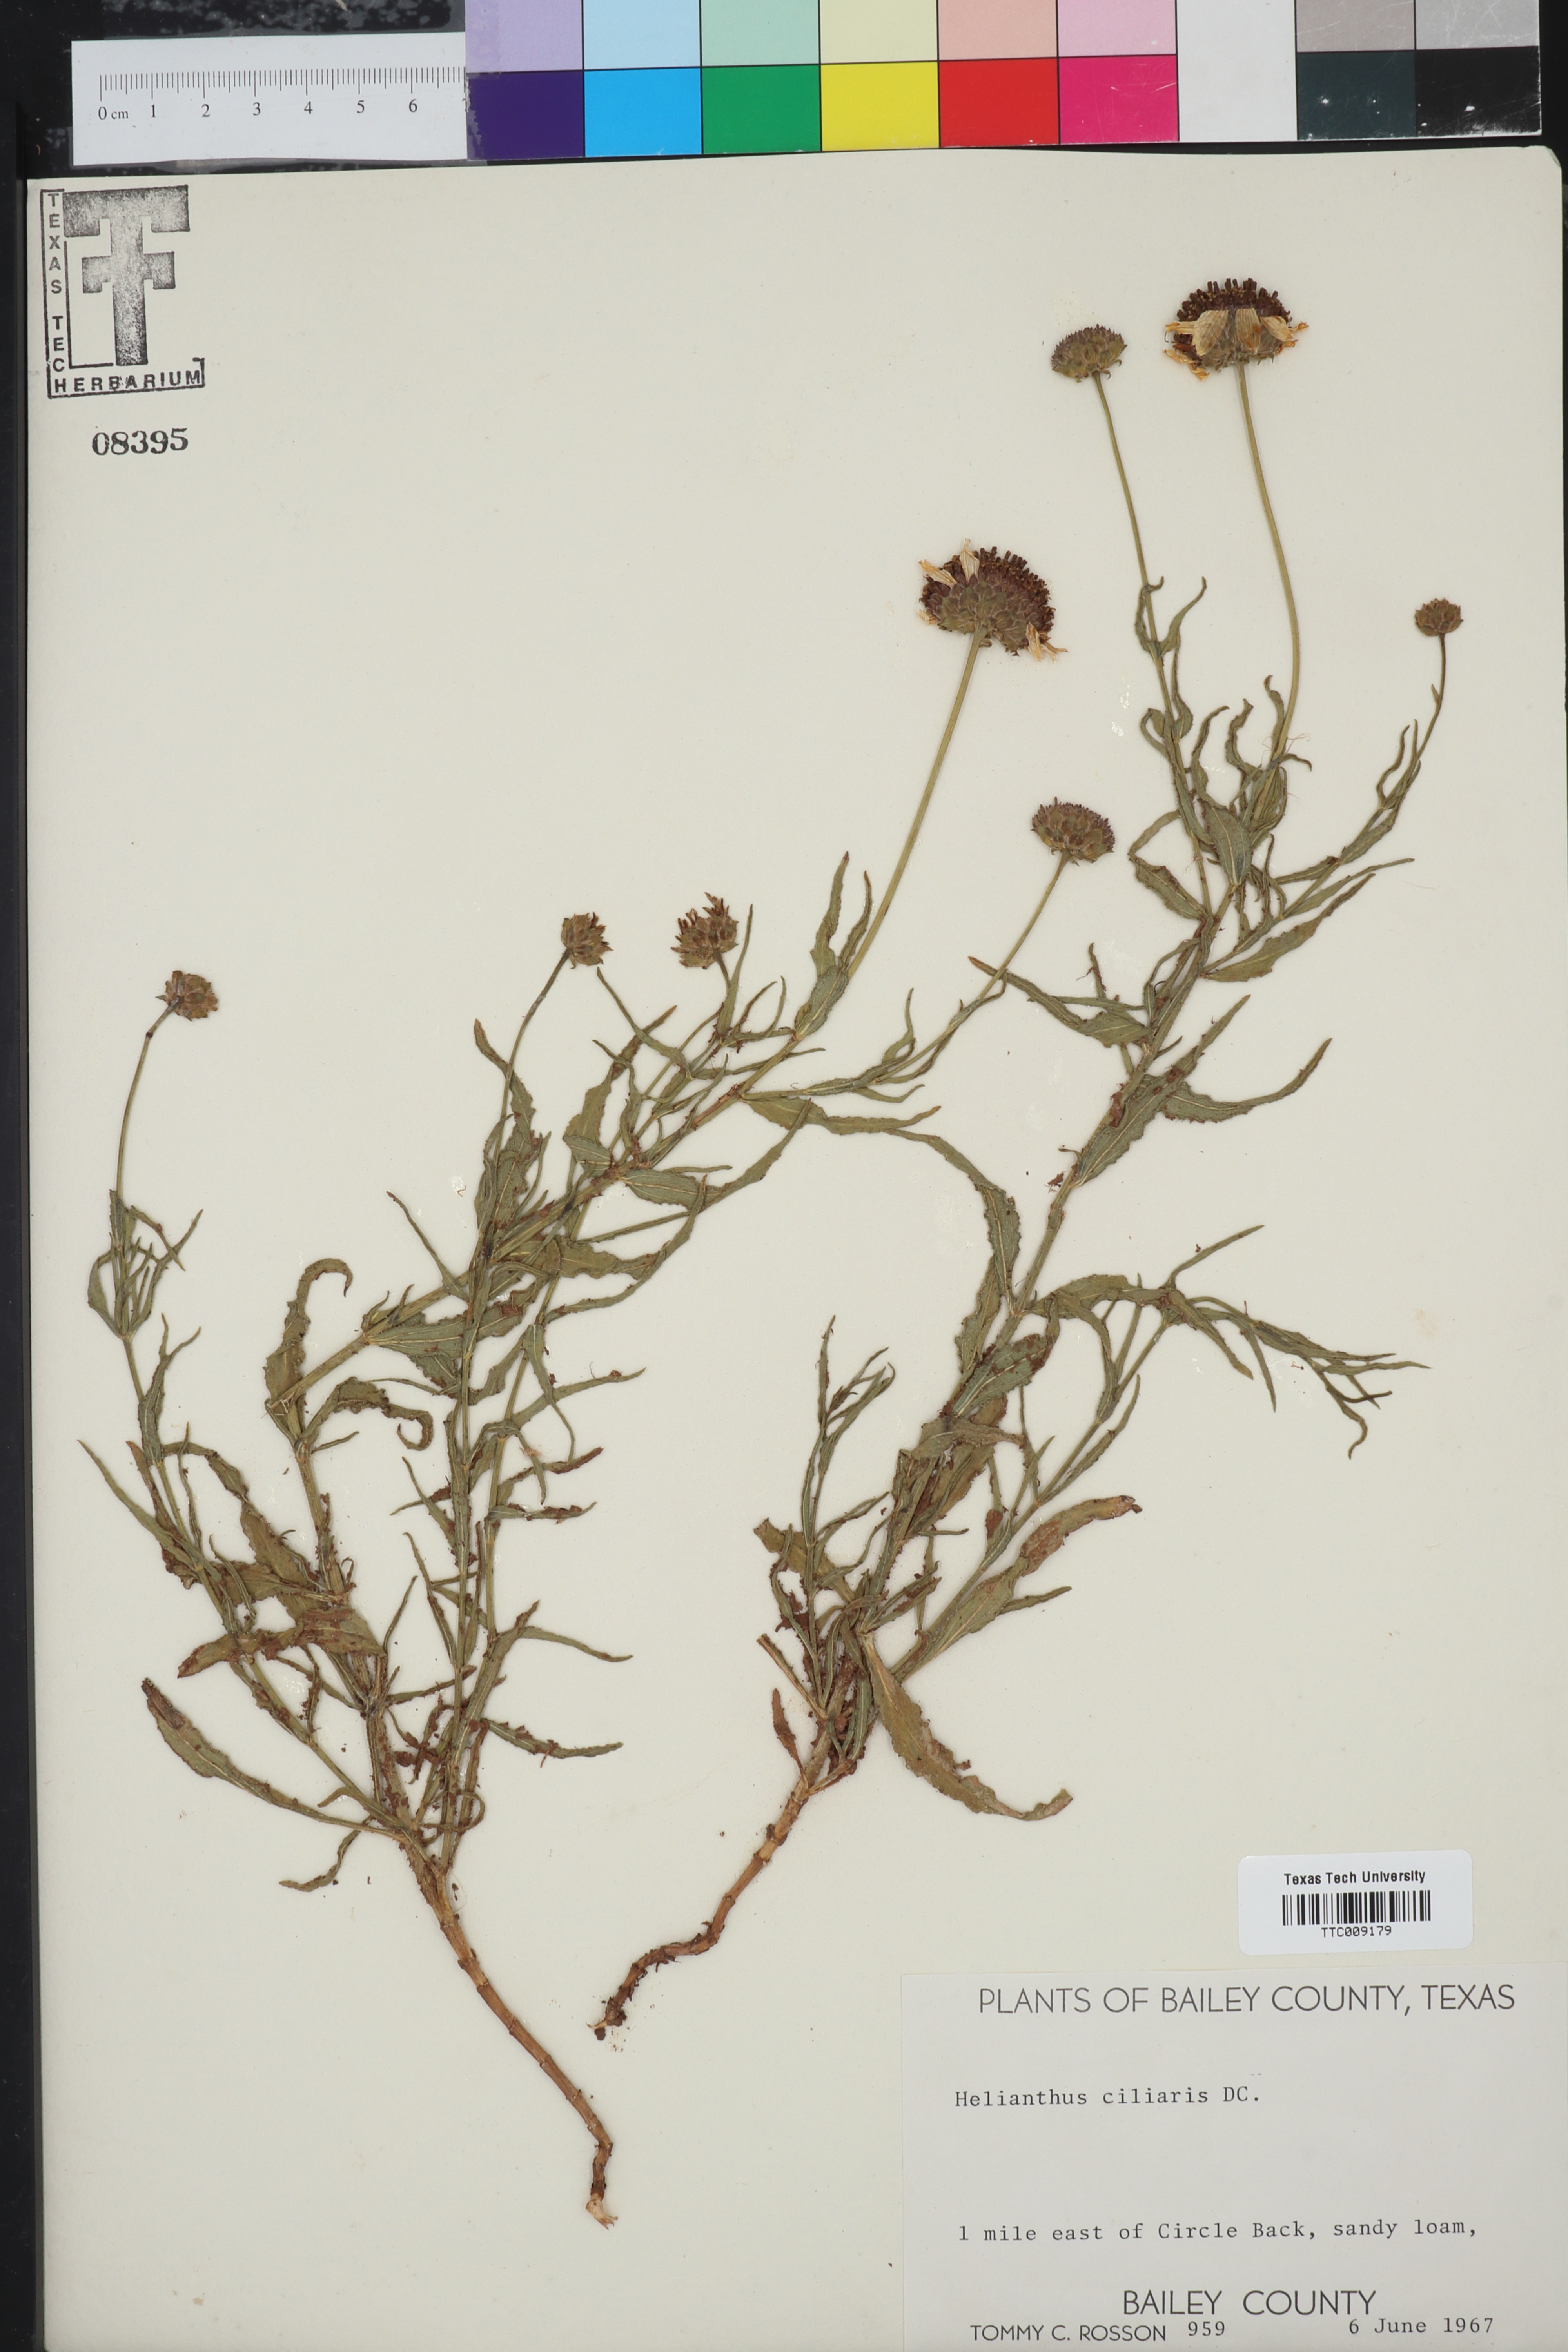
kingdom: Plantae
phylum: Tracheophyta
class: Magnoliopsida
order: Asterales
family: Asteraceae
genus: Helianthus
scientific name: Helianthus ciliaris
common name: Texas blueweed
